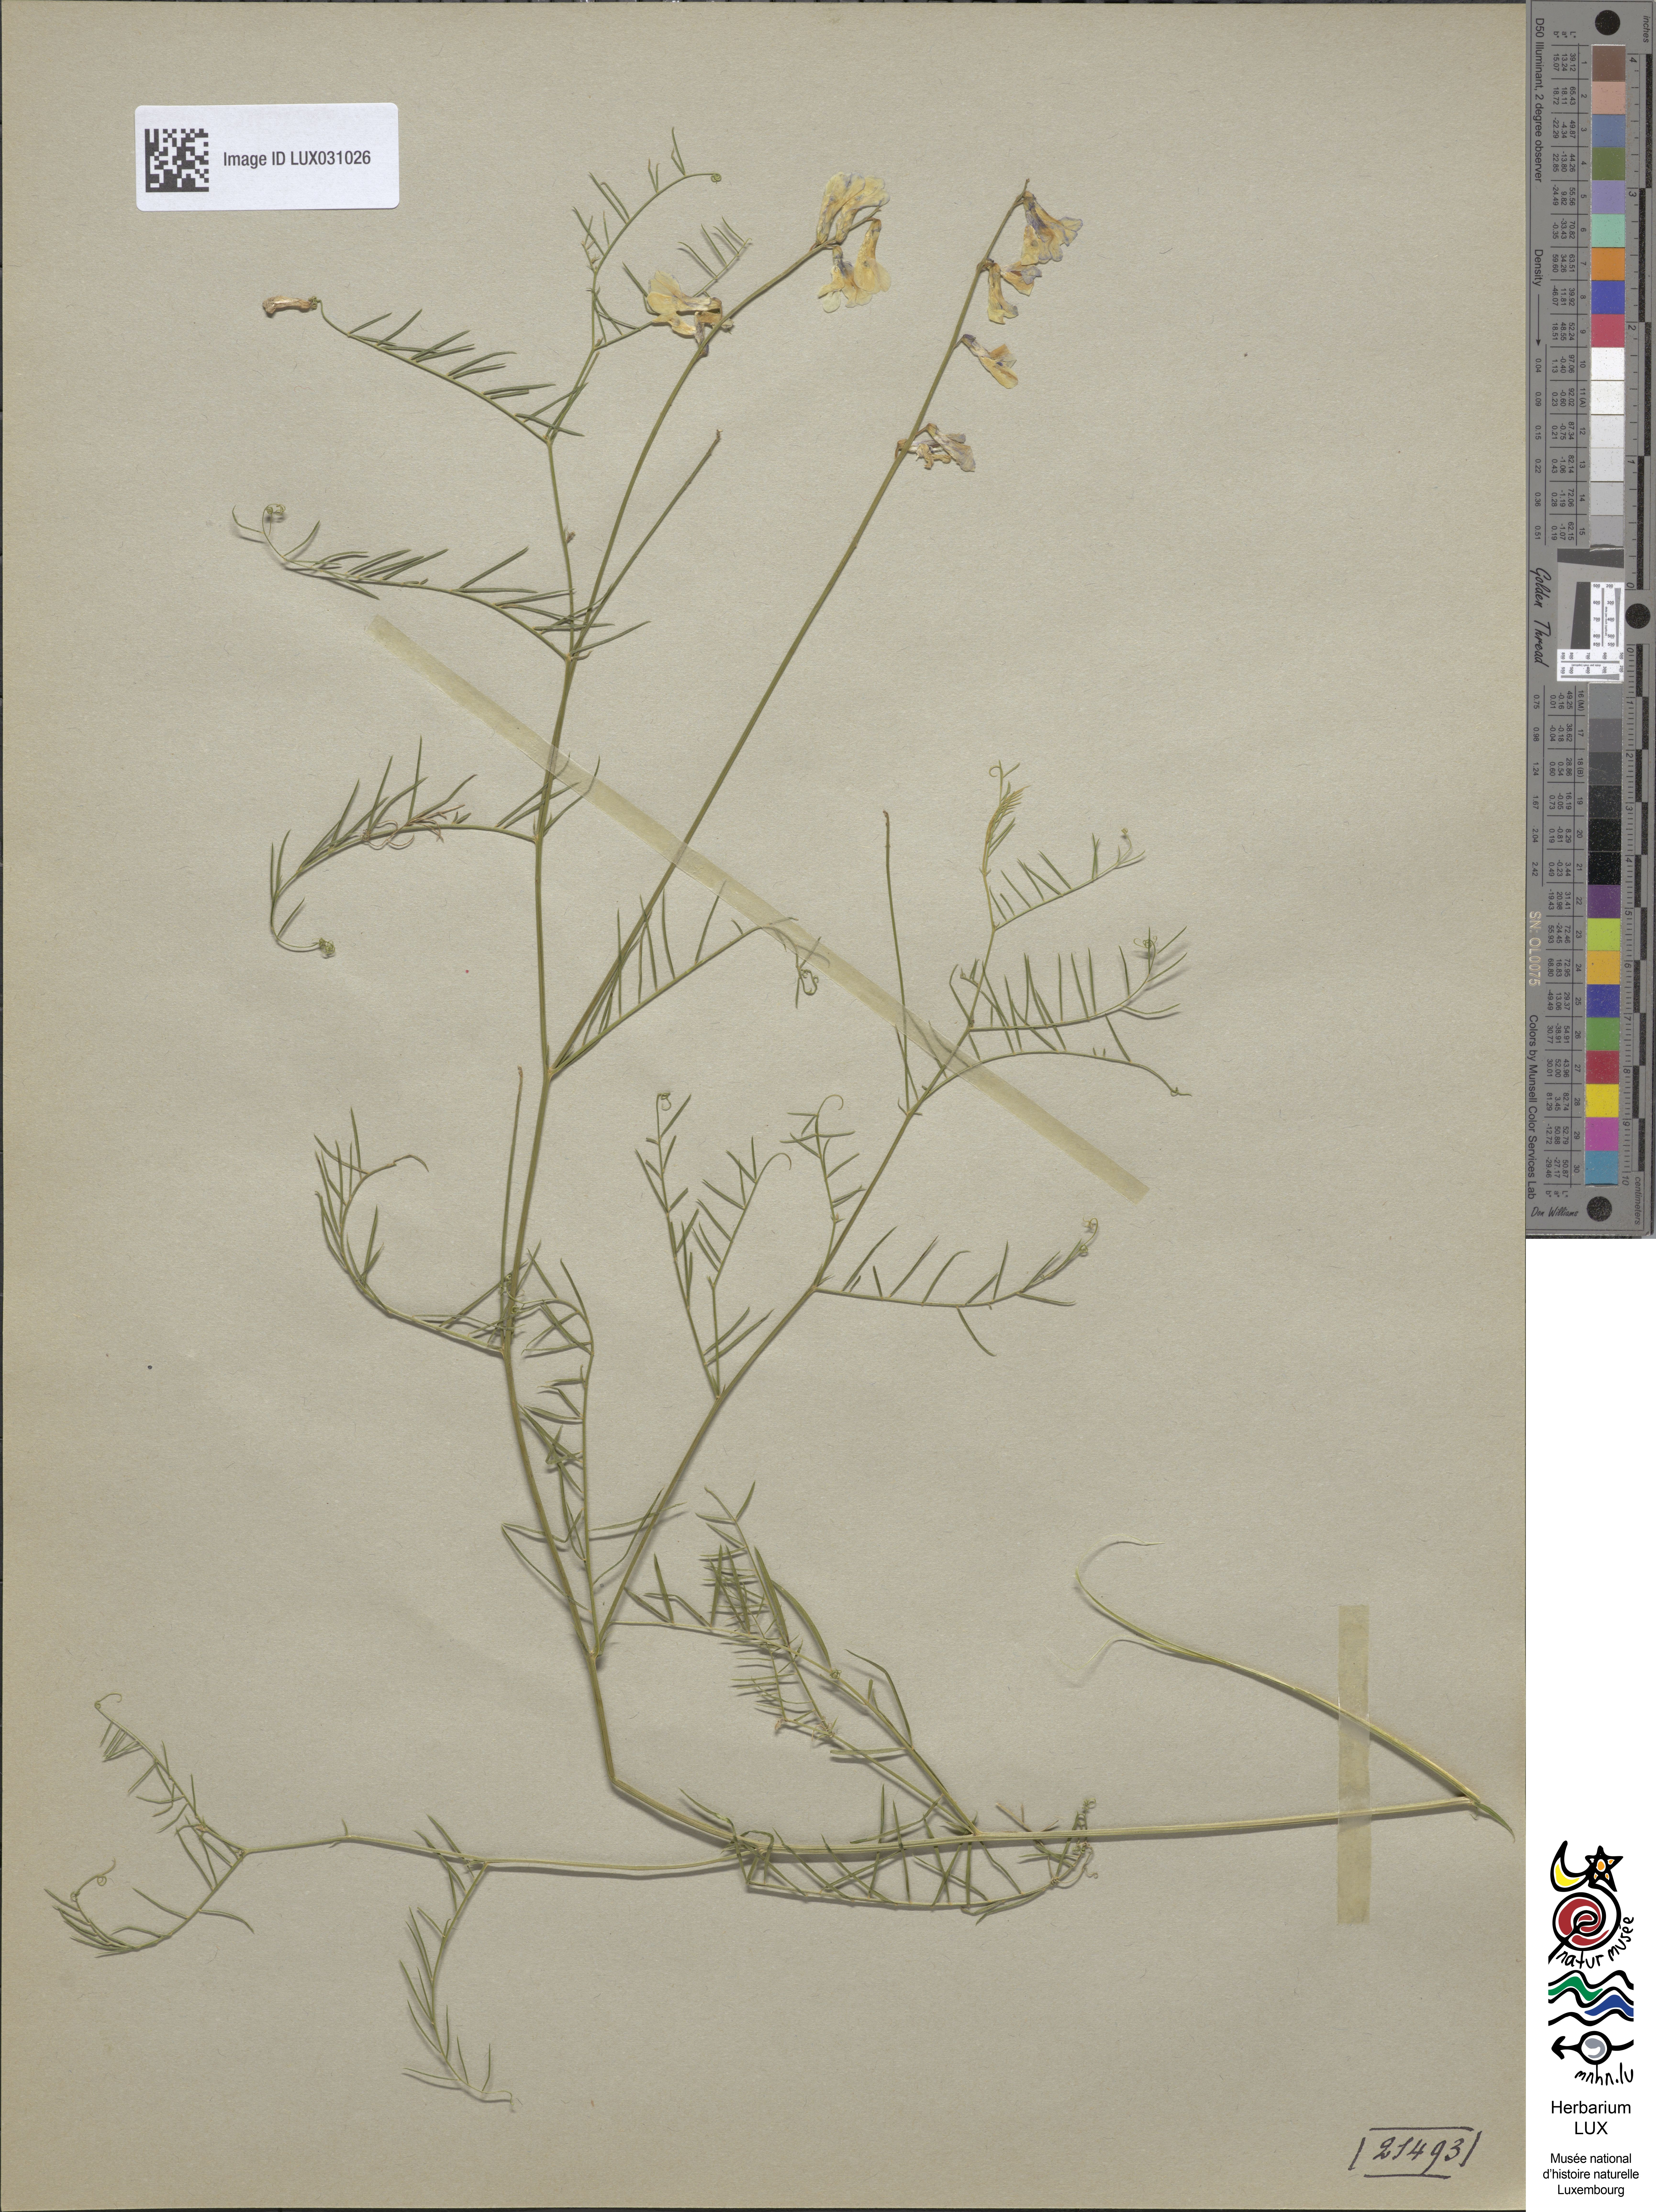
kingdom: Plantae
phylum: Tracheophyta
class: Magnoliopsida
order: Fabales
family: Fabaceae
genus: Vicia
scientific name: Vicia cracca
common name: Bird vetch
